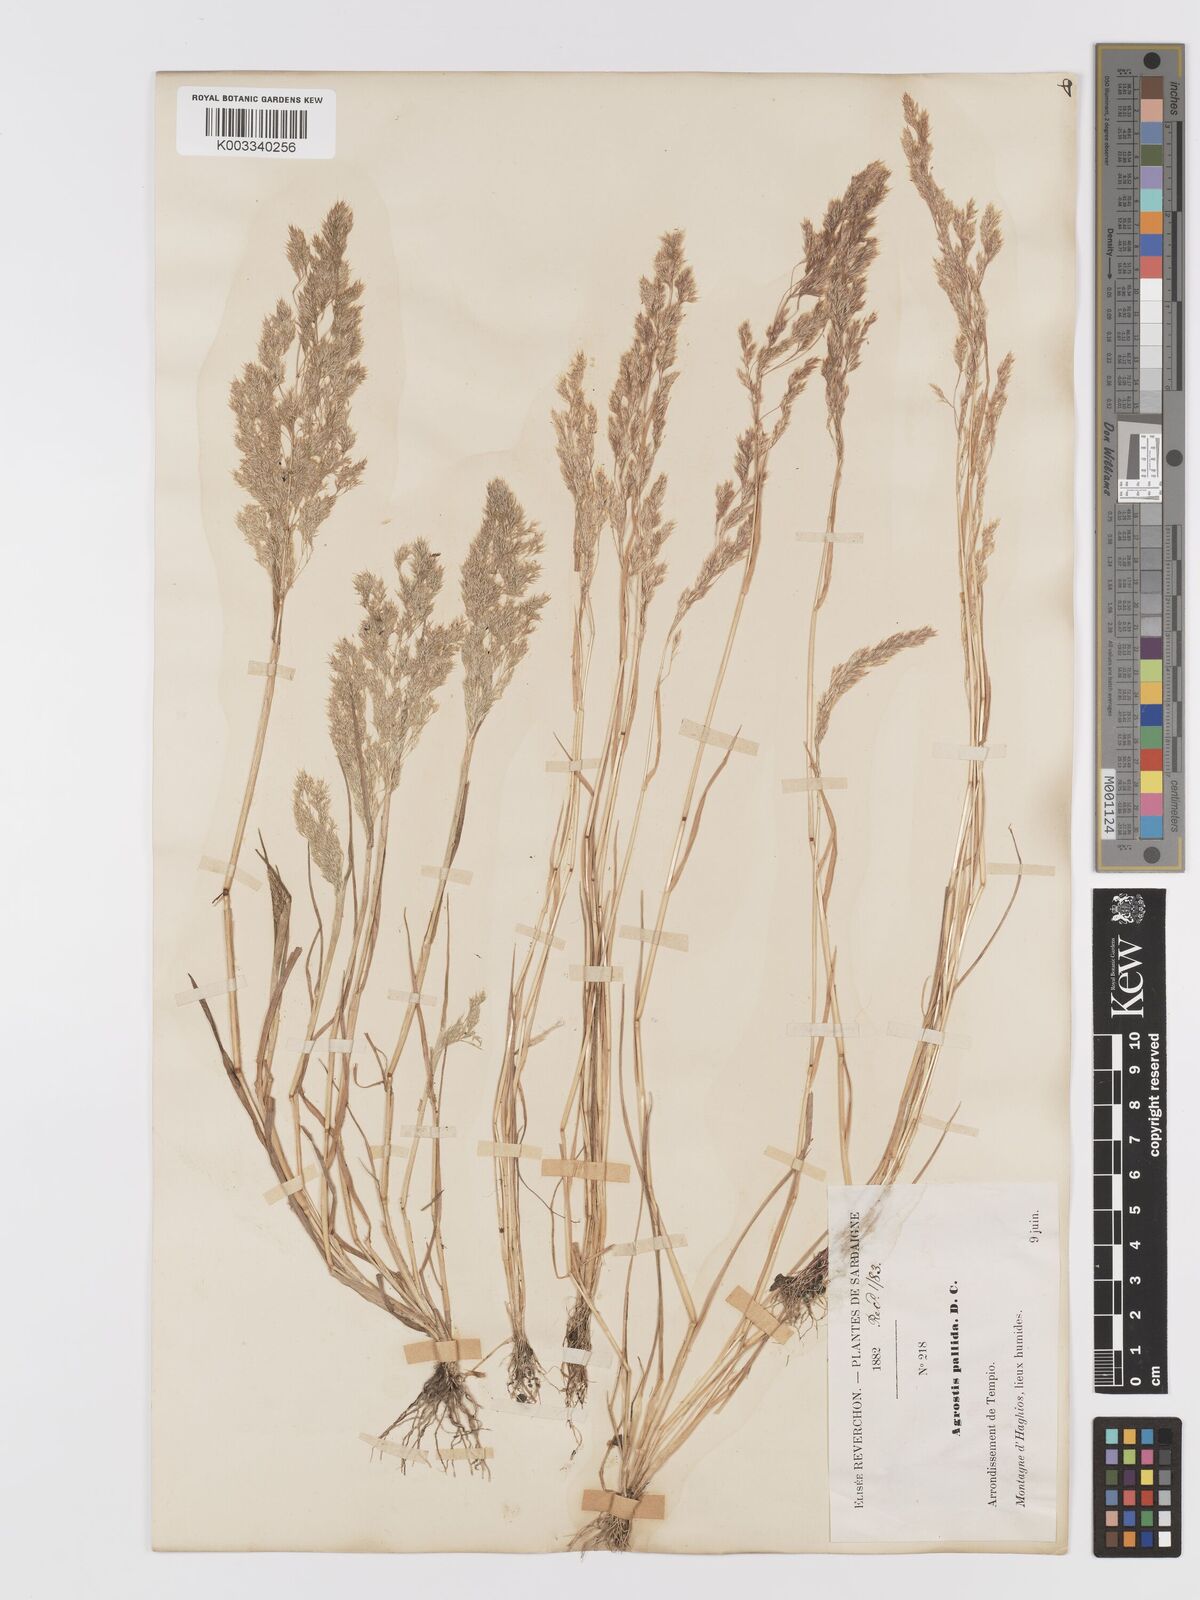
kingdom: Plantae
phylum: Tracheophyta
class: Liliopsida
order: Poales
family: Poaceae
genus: Agrostis
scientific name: Agrostis pourretii
